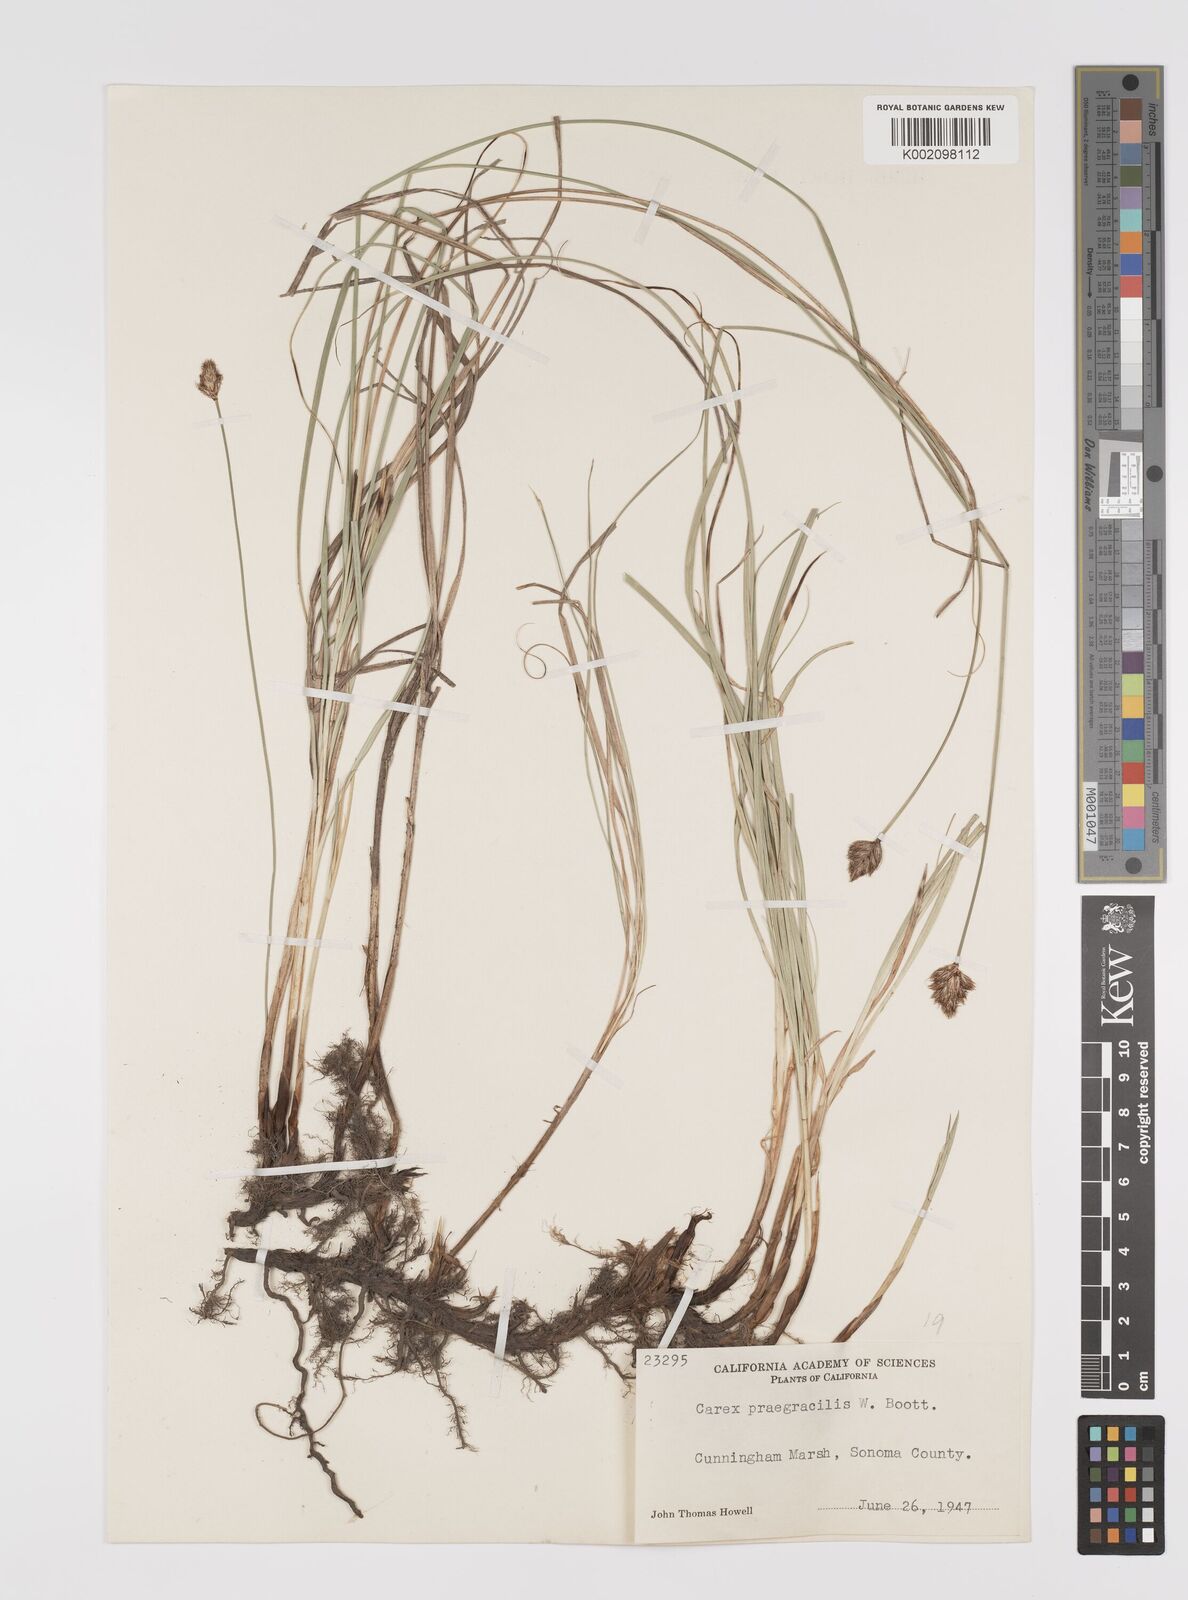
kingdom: Plantae
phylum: Tracheophyta
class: Liliopsida
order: Poales
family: Cyperaceae
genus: Carex
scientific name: Carex praegracilis
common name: Black creeper sedge
